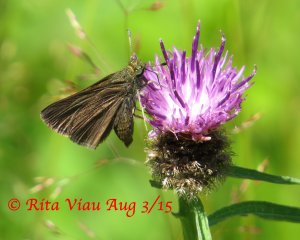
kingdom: Animalia
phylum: Arthropoda
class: Insecta
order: Lepidoptera
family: Hesperiidae
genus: Euphyes
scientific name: Euphyes vestris
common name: Dun Skipper
